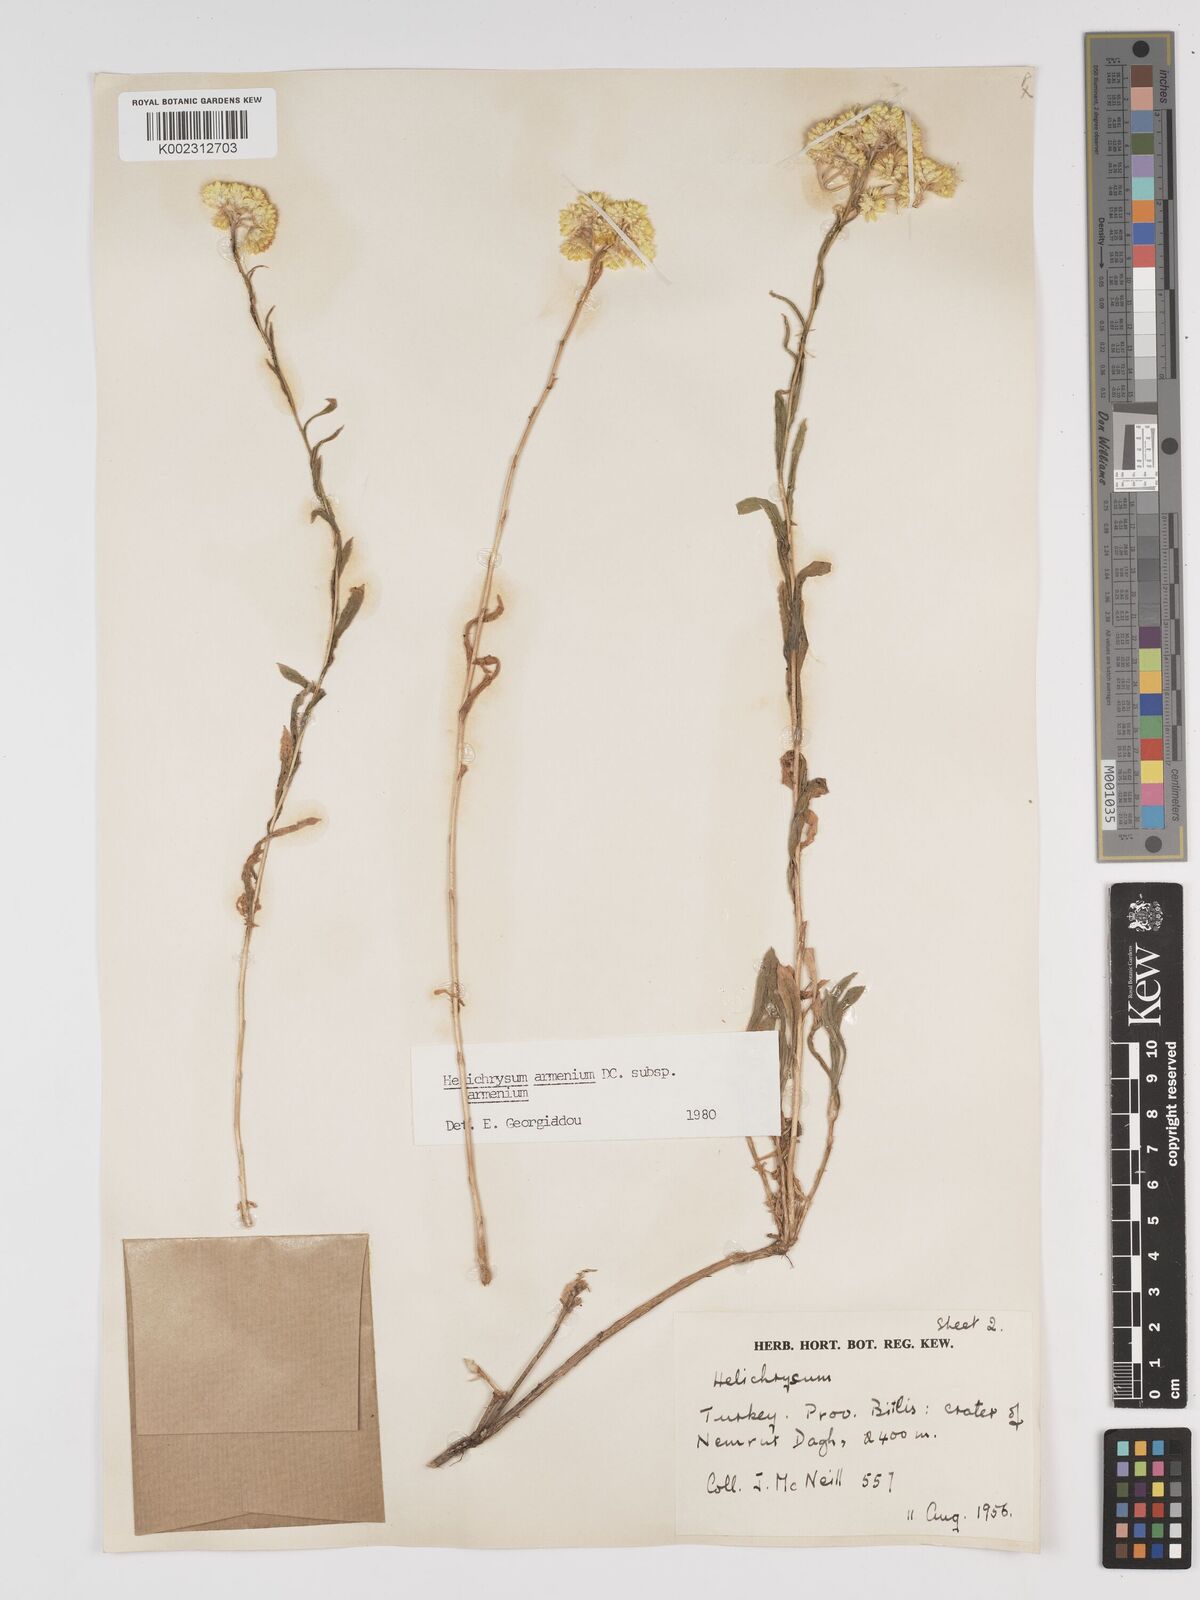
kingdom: Plantae
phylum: Tracheophyta
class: Magnoliopsida
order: Asterales
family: Asteraceae
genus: Helichrysum
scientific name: Helichrysum armenium
